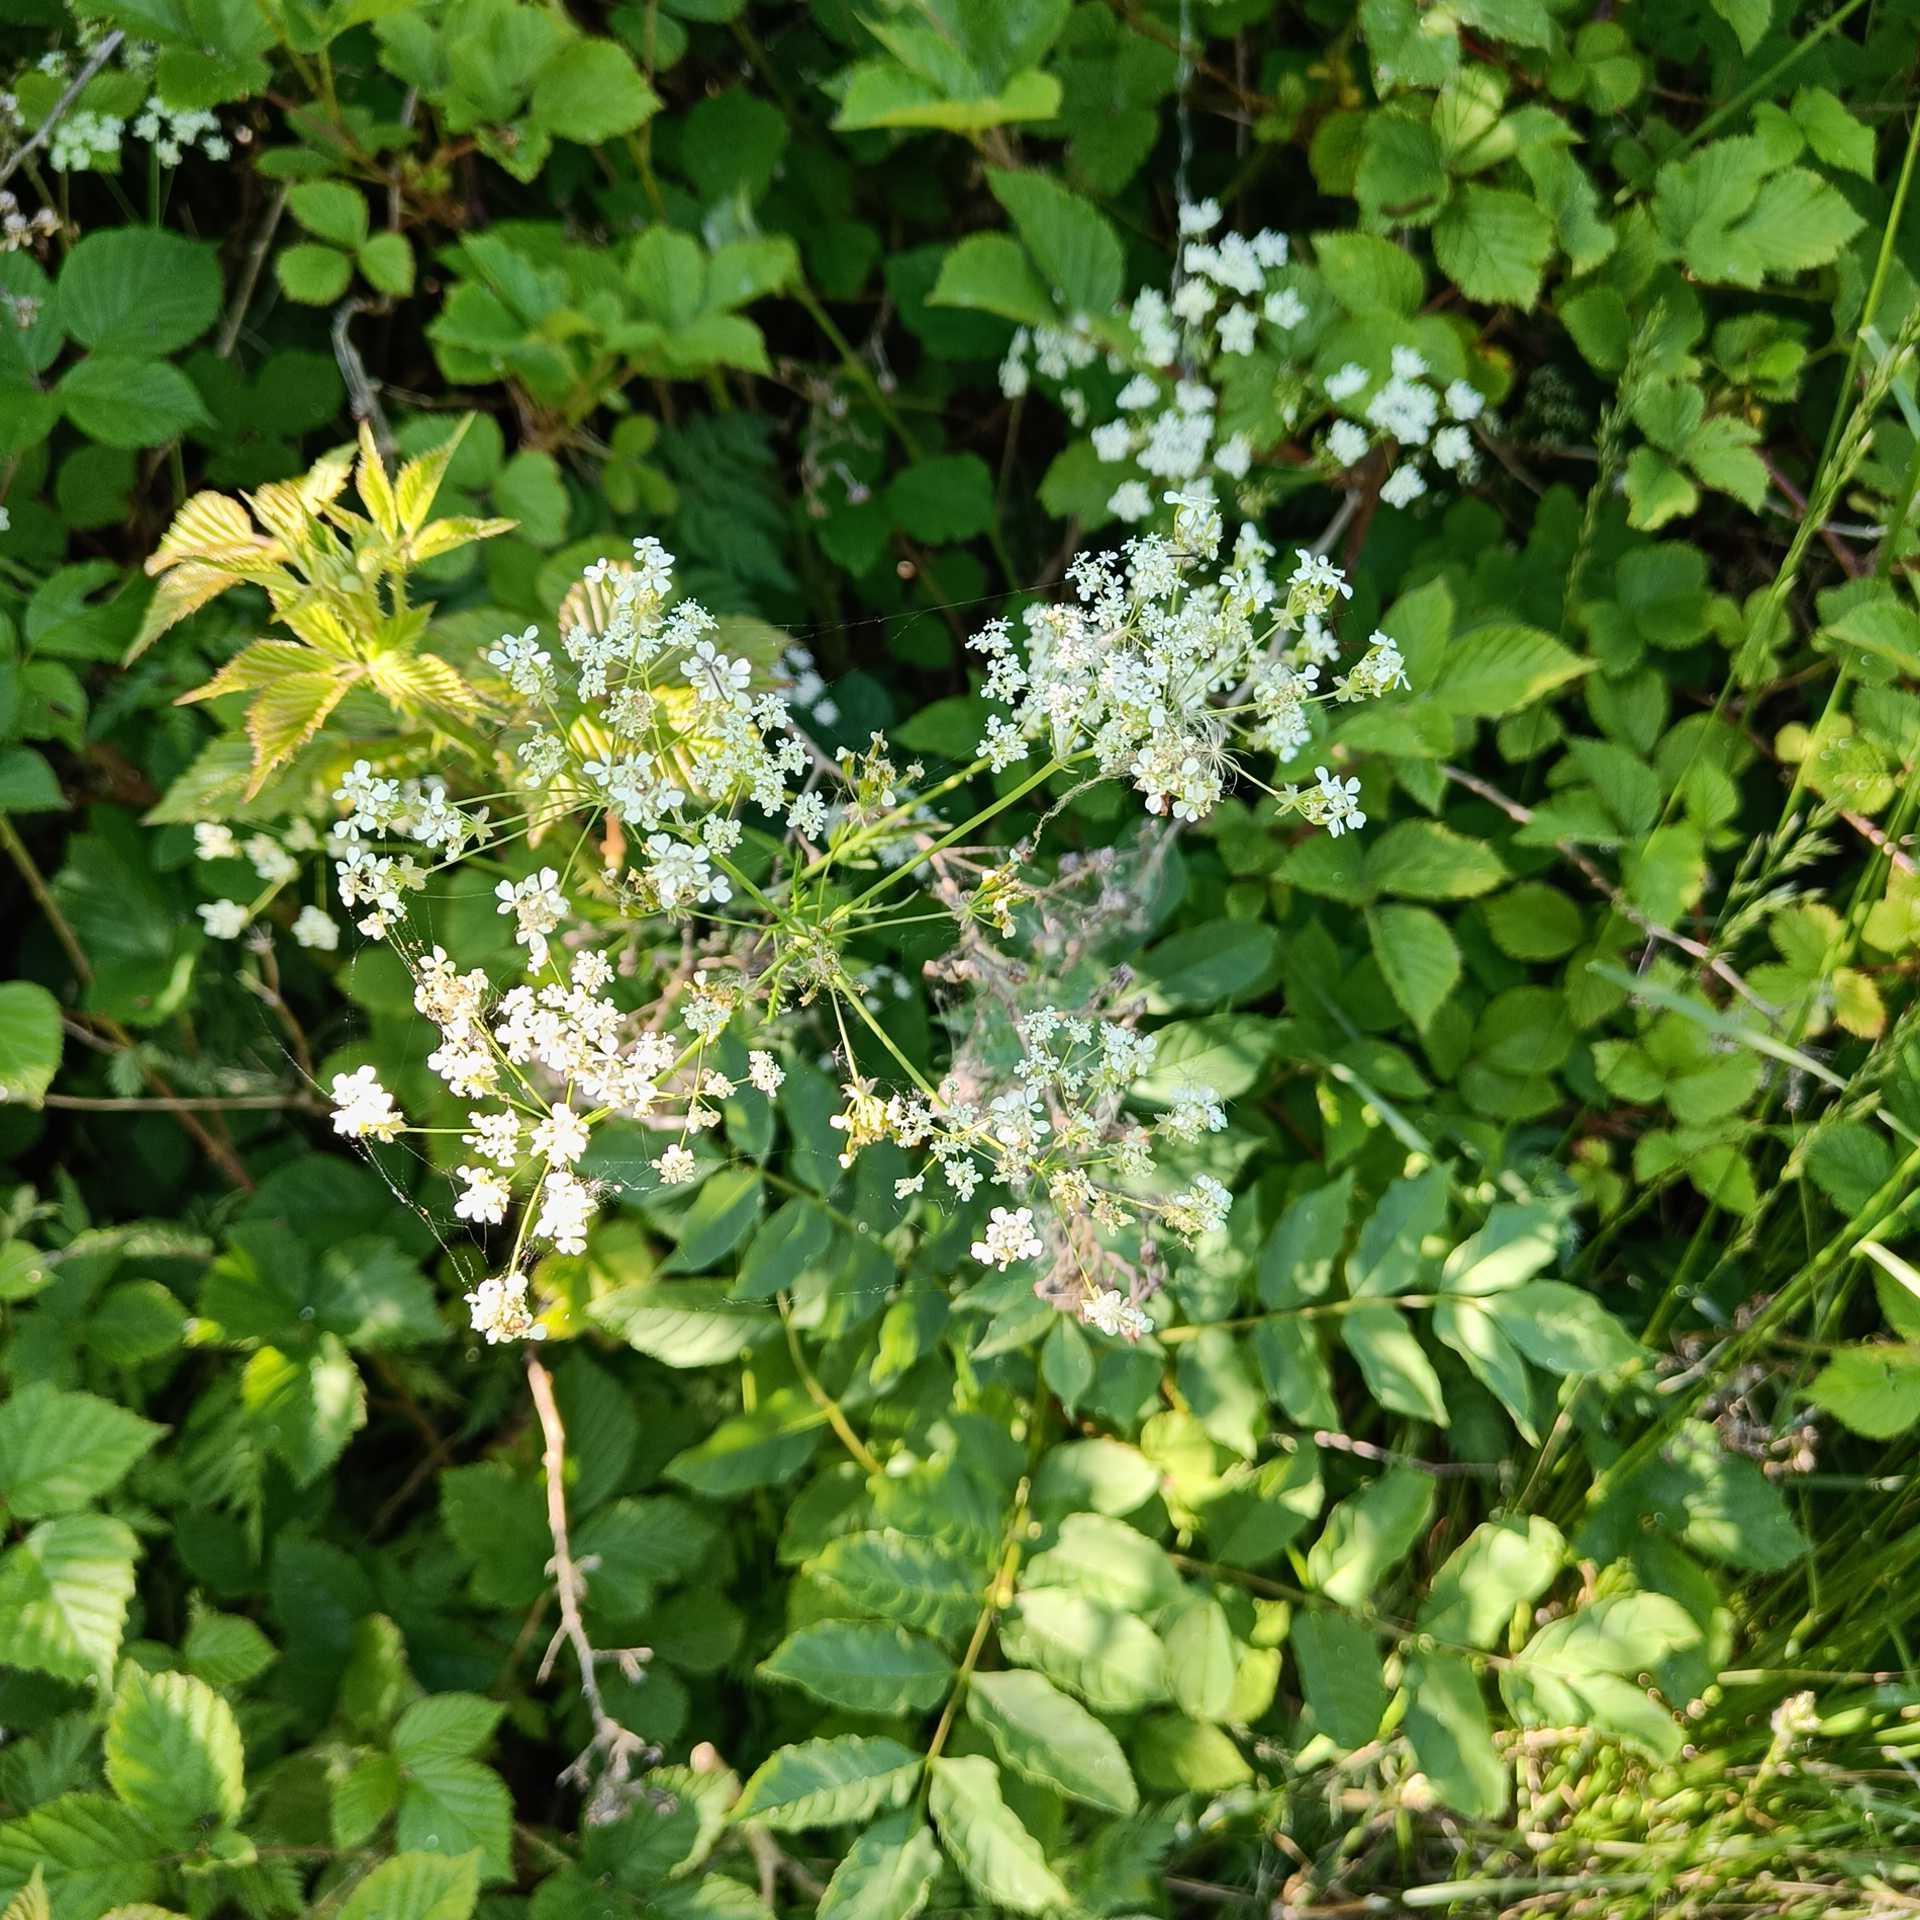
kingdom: Plantae
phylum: Tracheophyta
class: Magnoliopsida
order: Apiales
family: Apiaceae
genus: Anthriscus
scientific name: Anthriscus sylvestris
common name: Vild kørvel
